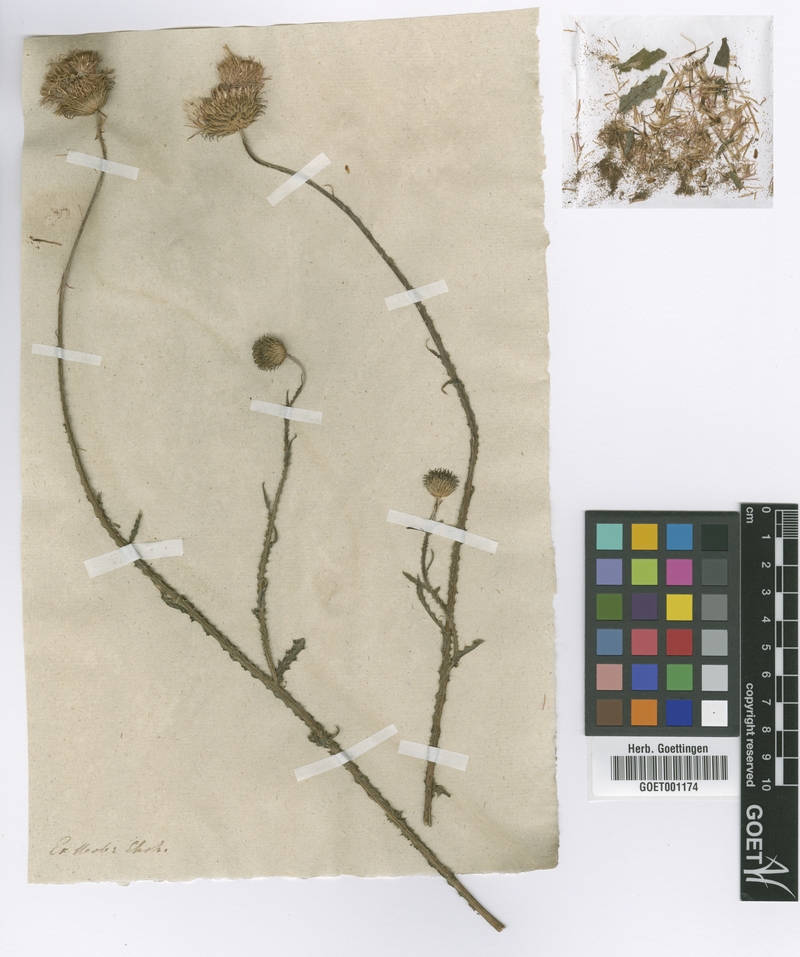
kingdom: Plantae
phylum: Tracheophyta
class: Magnoliopsida
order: Asterales
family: Asteraceae
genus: Carduus
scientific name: Carduus hamulosus
